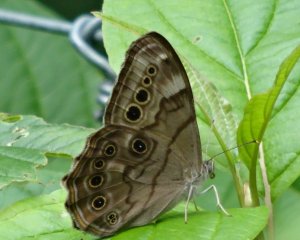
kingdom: Animalia
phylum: Arthropoda
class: Insecta
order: Lepidoptera
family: Nymphalidae
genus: Lethe
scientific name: Lethe anthedon
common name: Northern Pearly-Eye
